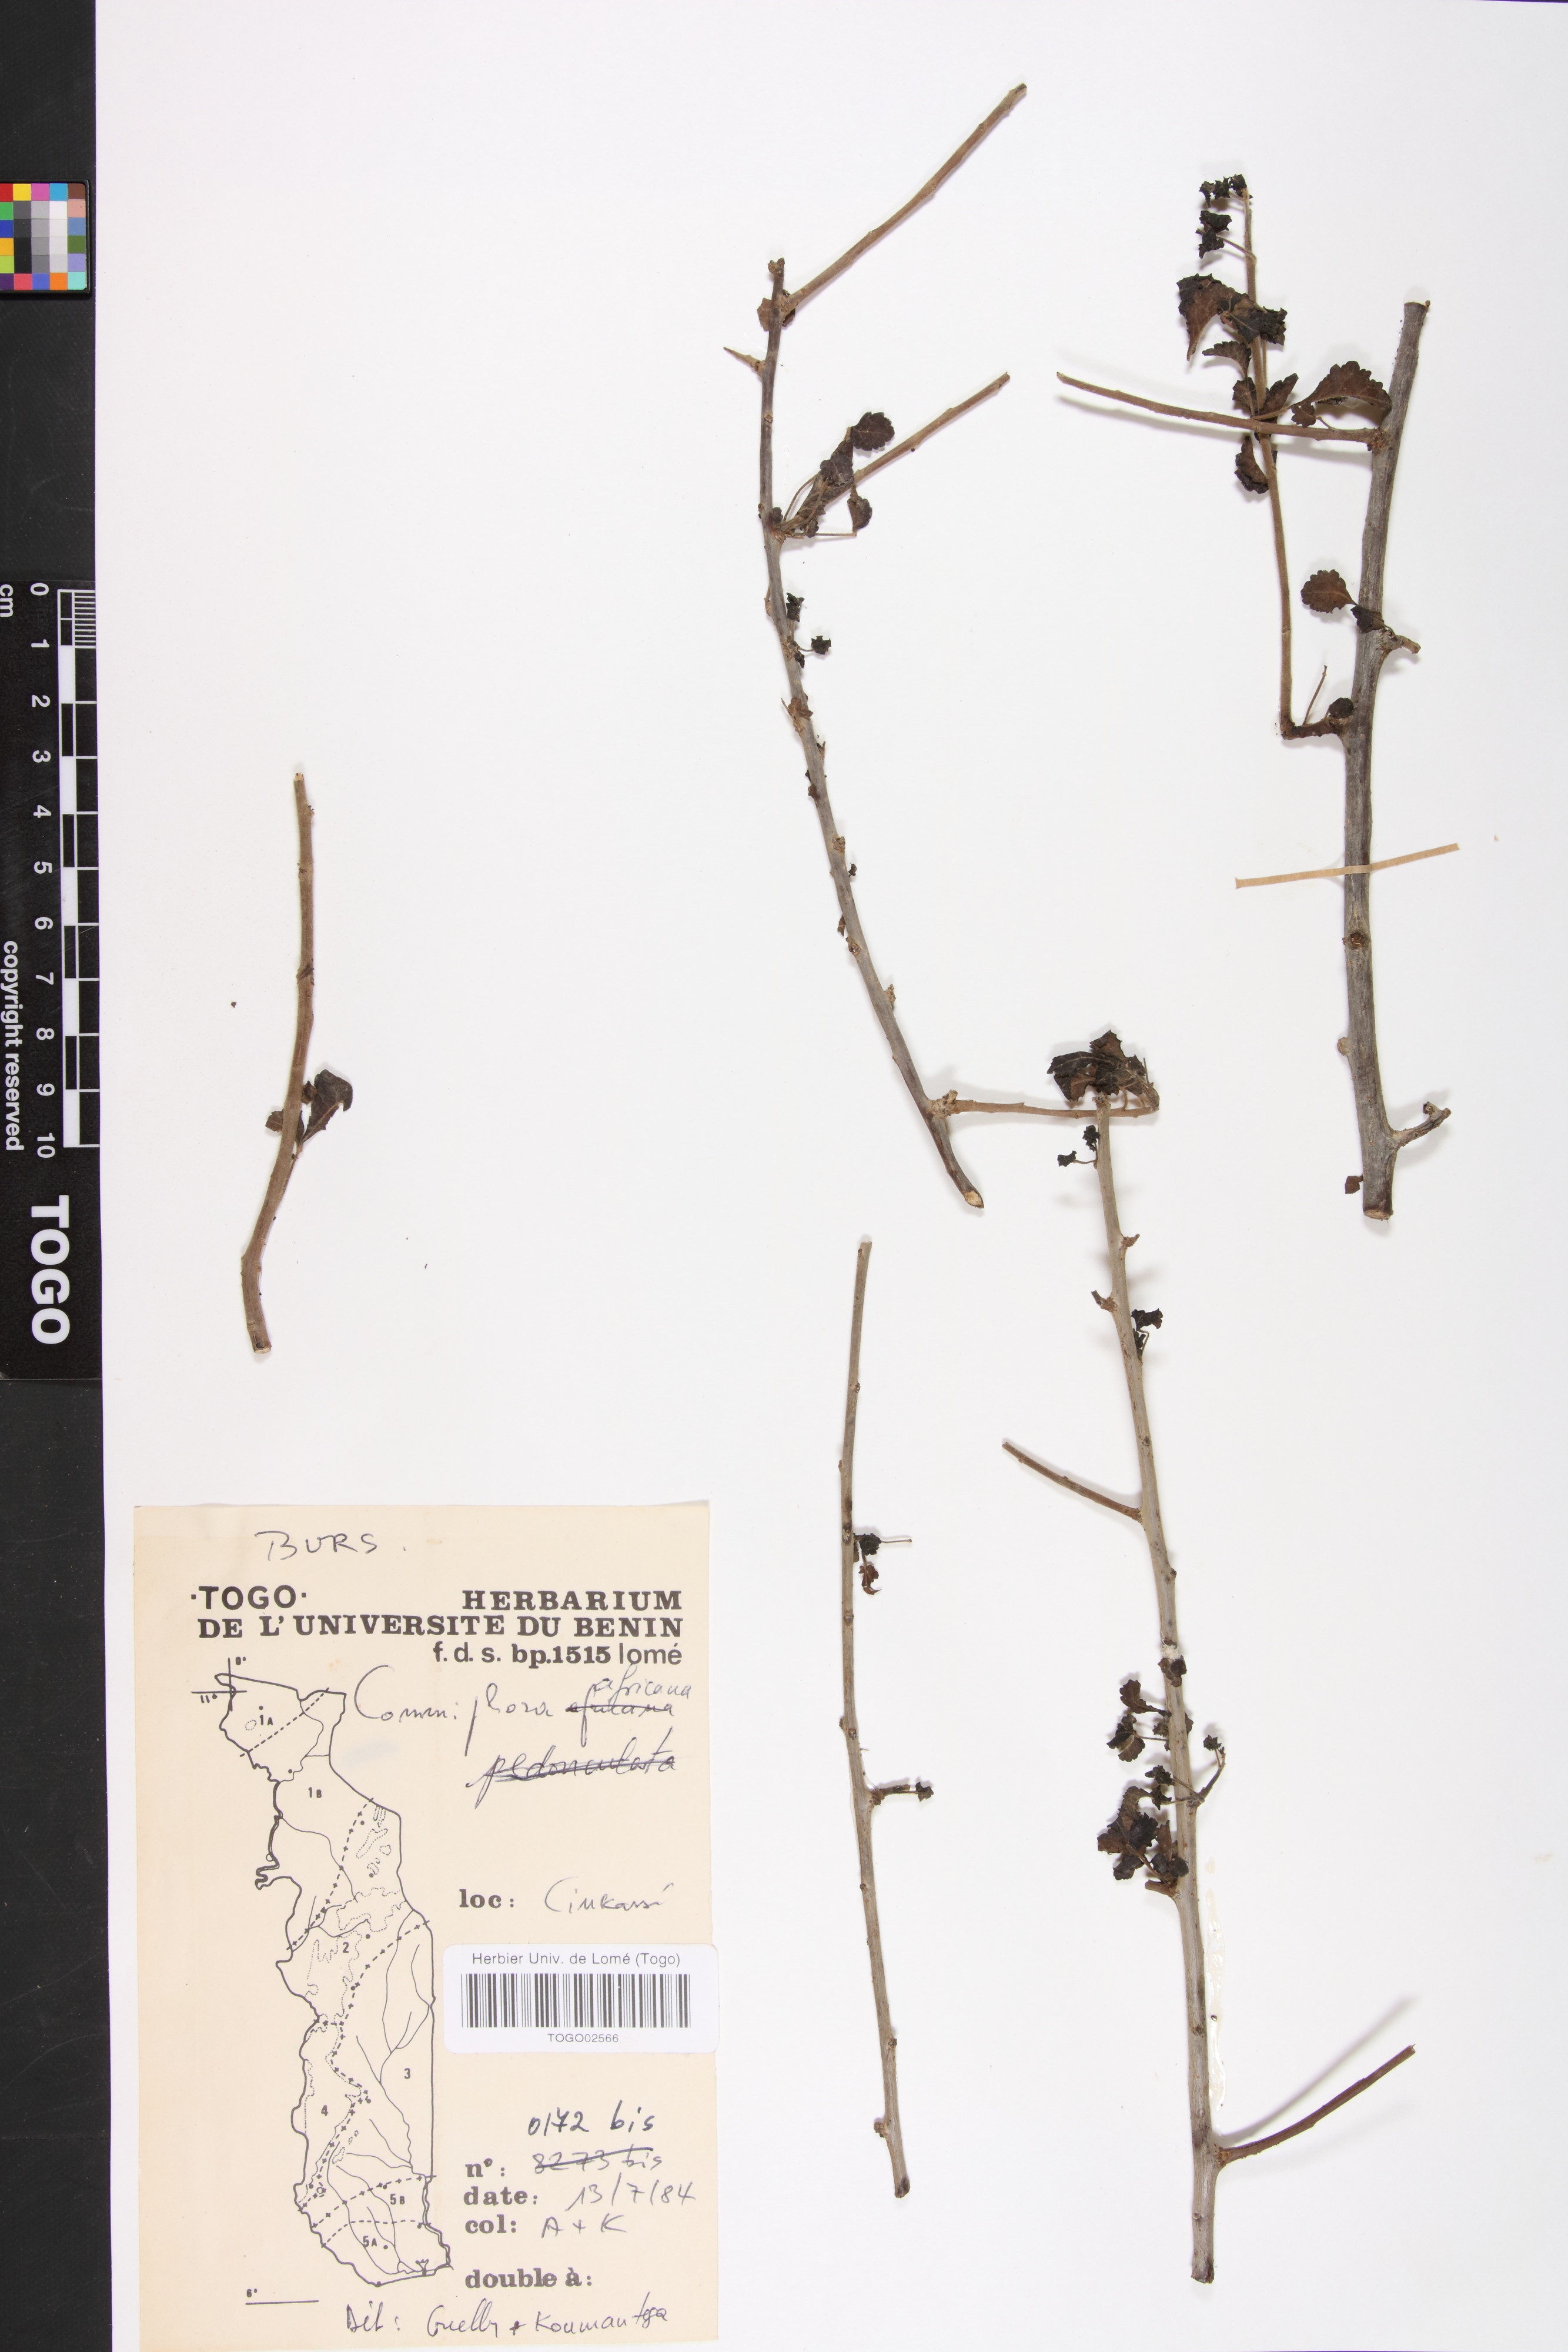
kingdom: Plantae
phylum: Tracheophyta
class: Magnoliopsida
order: Sapindales
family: Burseraceae
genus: Commiphora
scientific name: Commiphora africana
